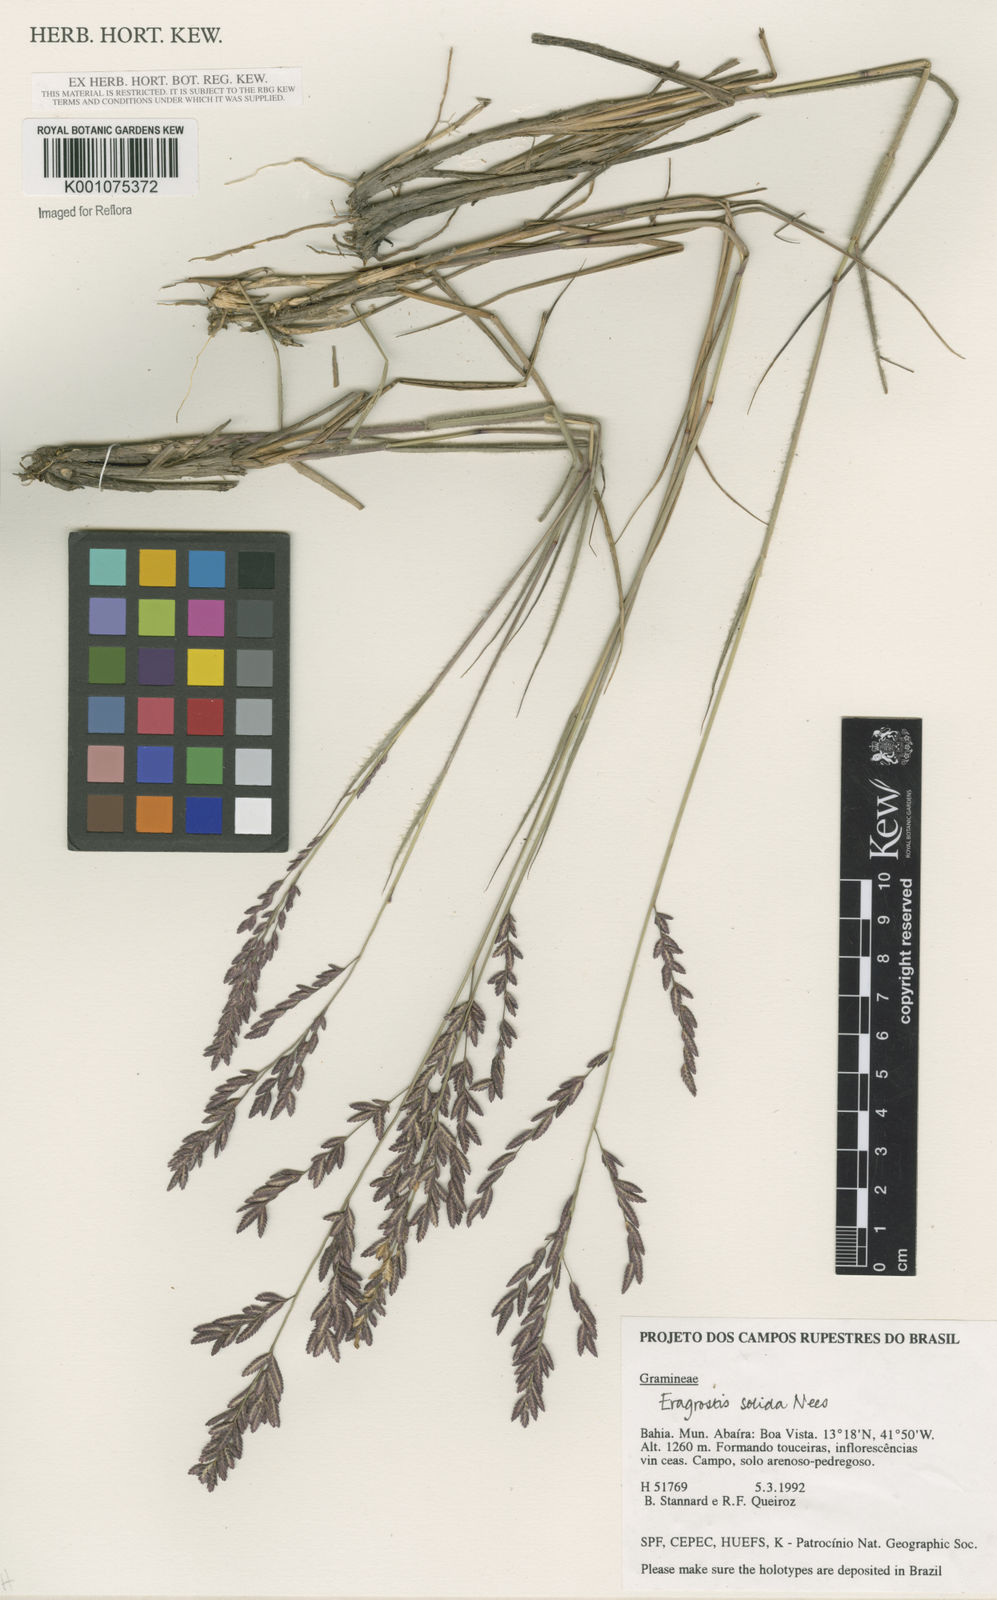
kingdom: Plantae
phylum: Tracheophyta
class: Liliopsida
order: Poales
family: Poaceae
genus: Eragrostis
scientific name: Eragrostis solida
